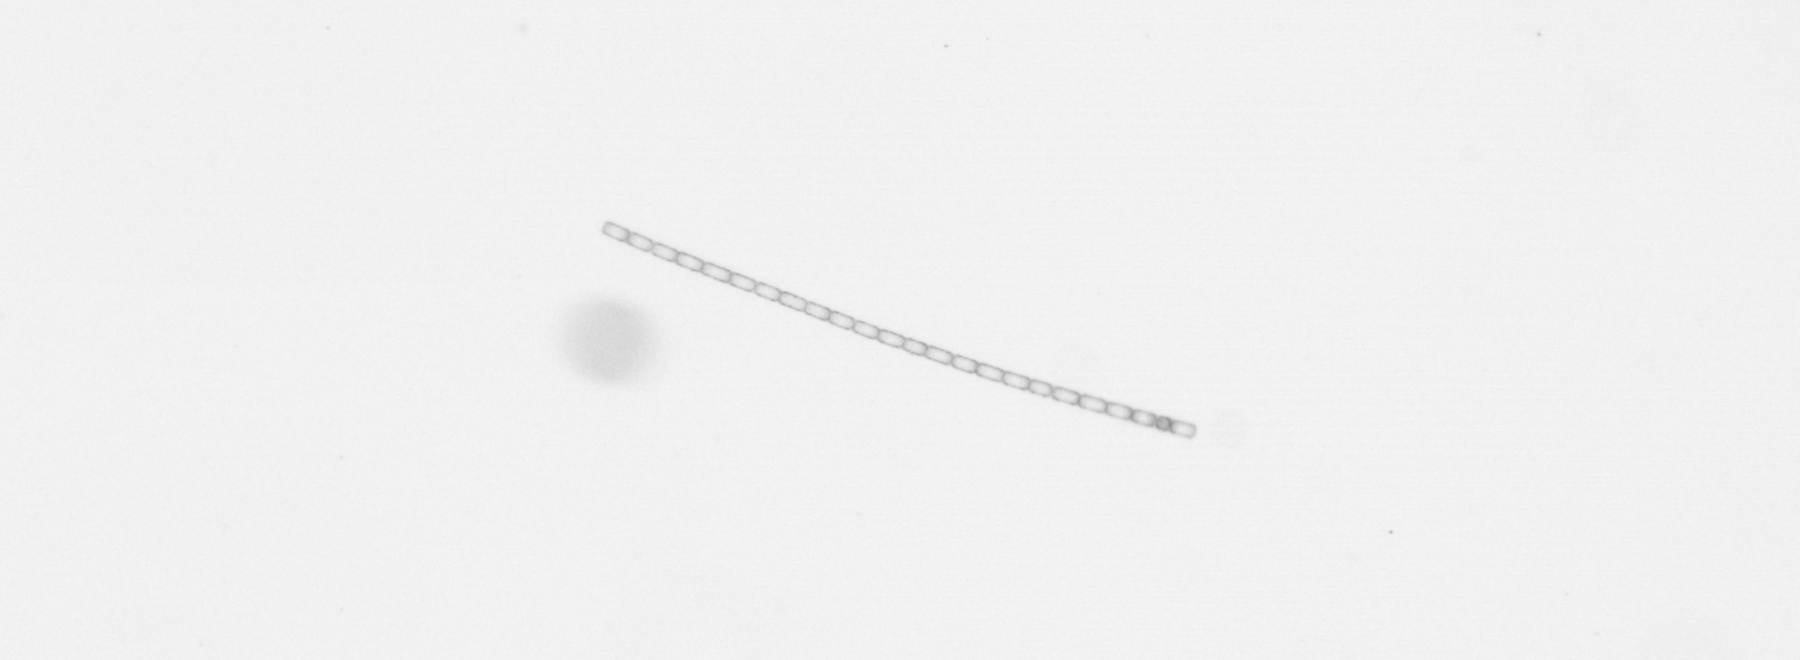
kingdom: Chromista
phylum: Ochrophyta
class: Bacillariophyceae
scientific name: Bacillariophyceae
